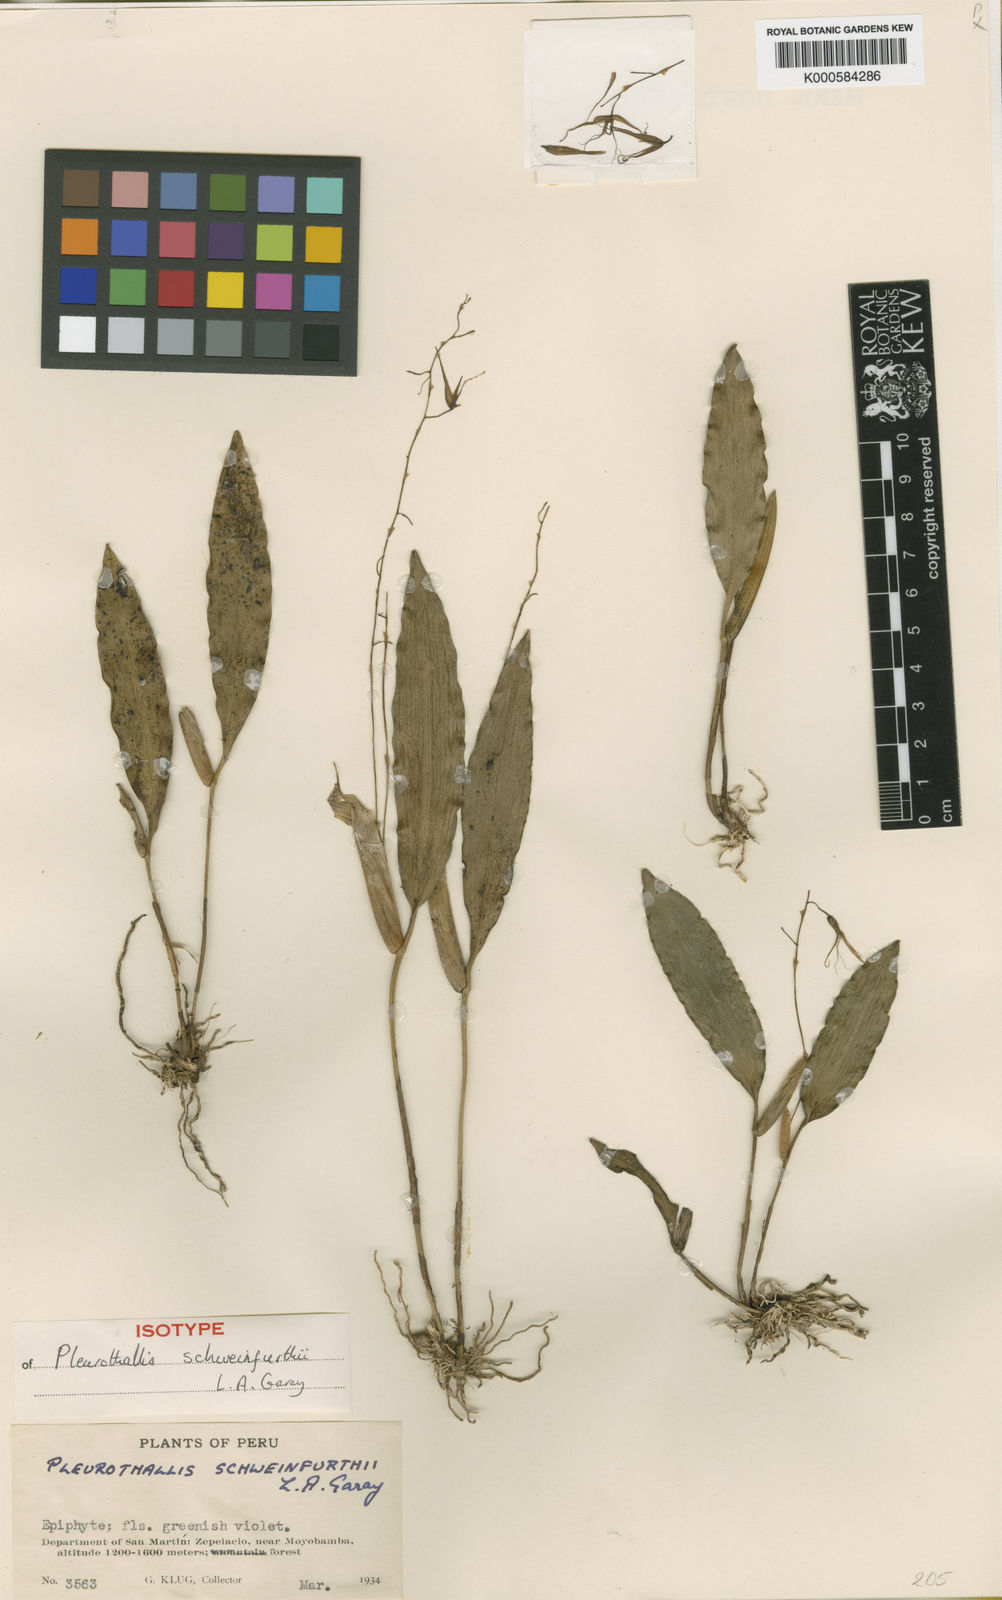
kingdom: Plantae
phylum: Tracheophyta
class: Liliopsida
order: Asparagales
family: Orchidaceae
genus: Pleurothallis
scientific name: Pleurothallis schweinfurthii
